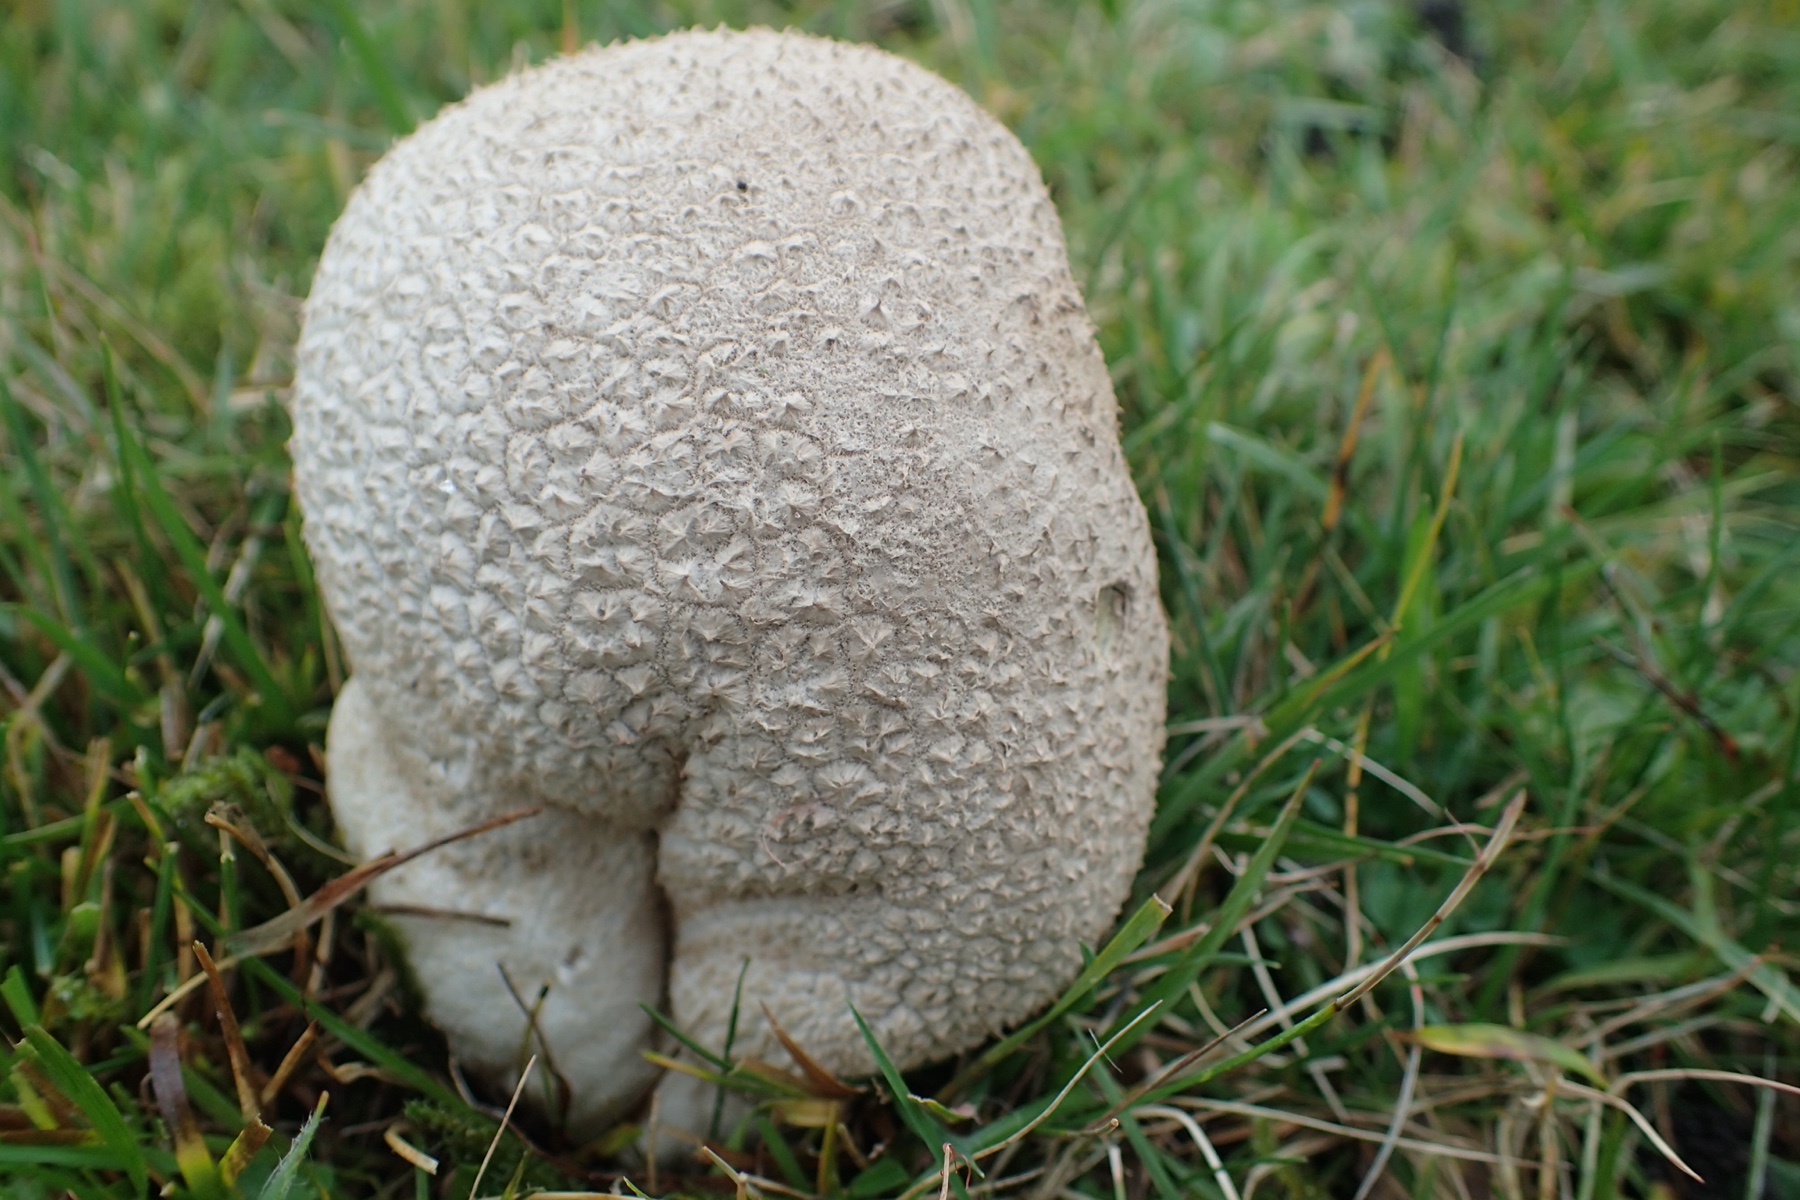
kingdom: Fungi
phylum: Basidiomycota
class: Agaricomycetes
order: Agaricales
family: Lycoperdaceae
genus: Bovistella
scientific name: Bovistella utriformis
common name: skællet støvbold
